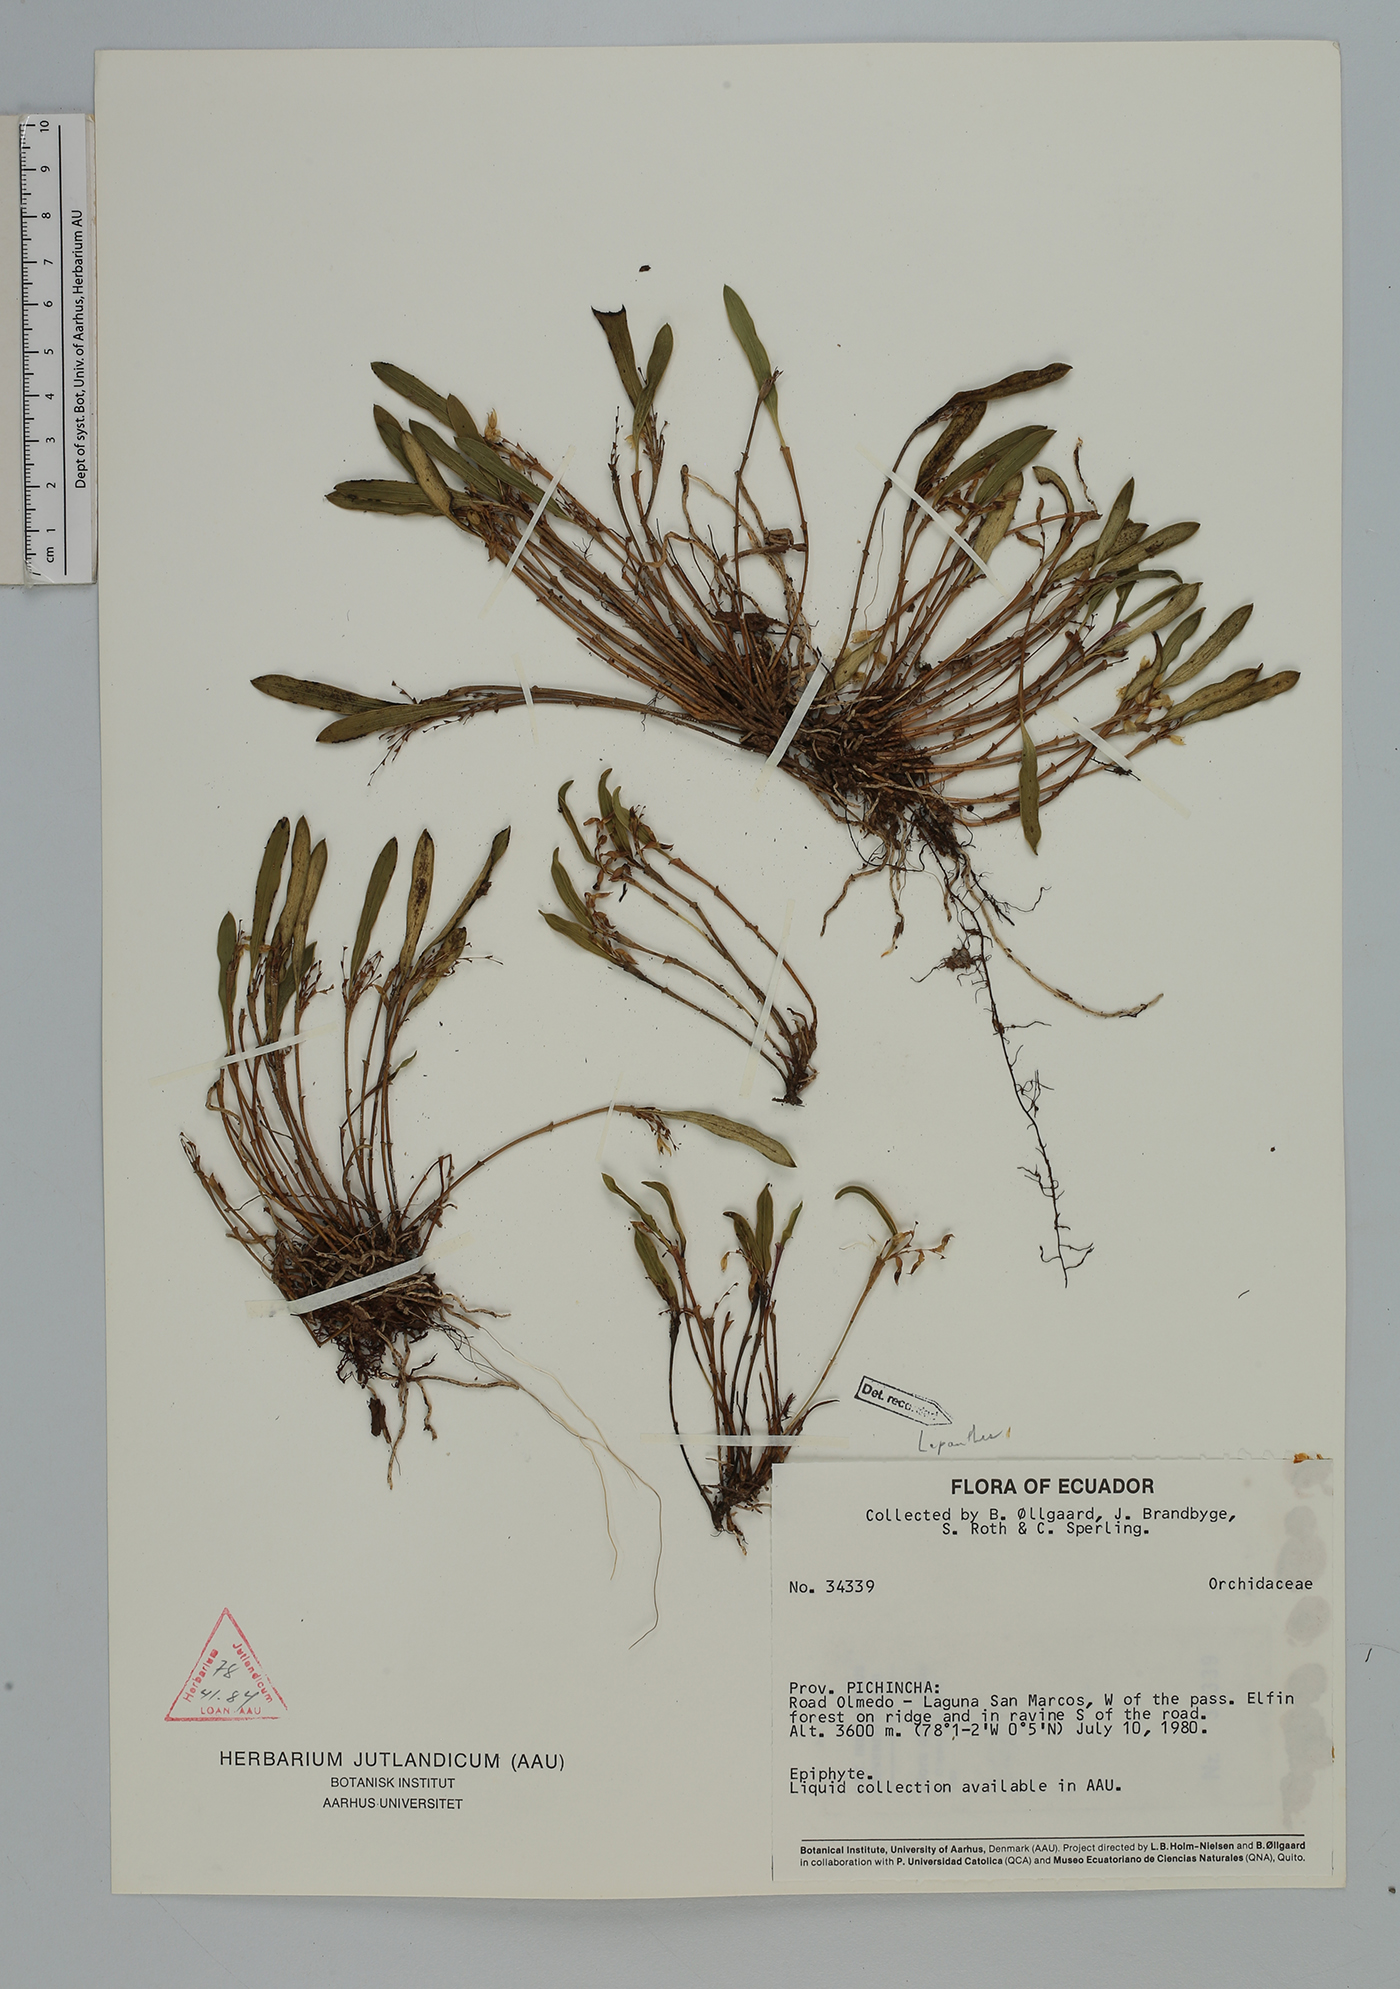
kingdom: Plantae
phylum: Tracheophyta
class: Liliopsida
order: Asparagales
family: Orchidaceae
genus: Trichosalpinx
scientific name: Trichosalpinx
